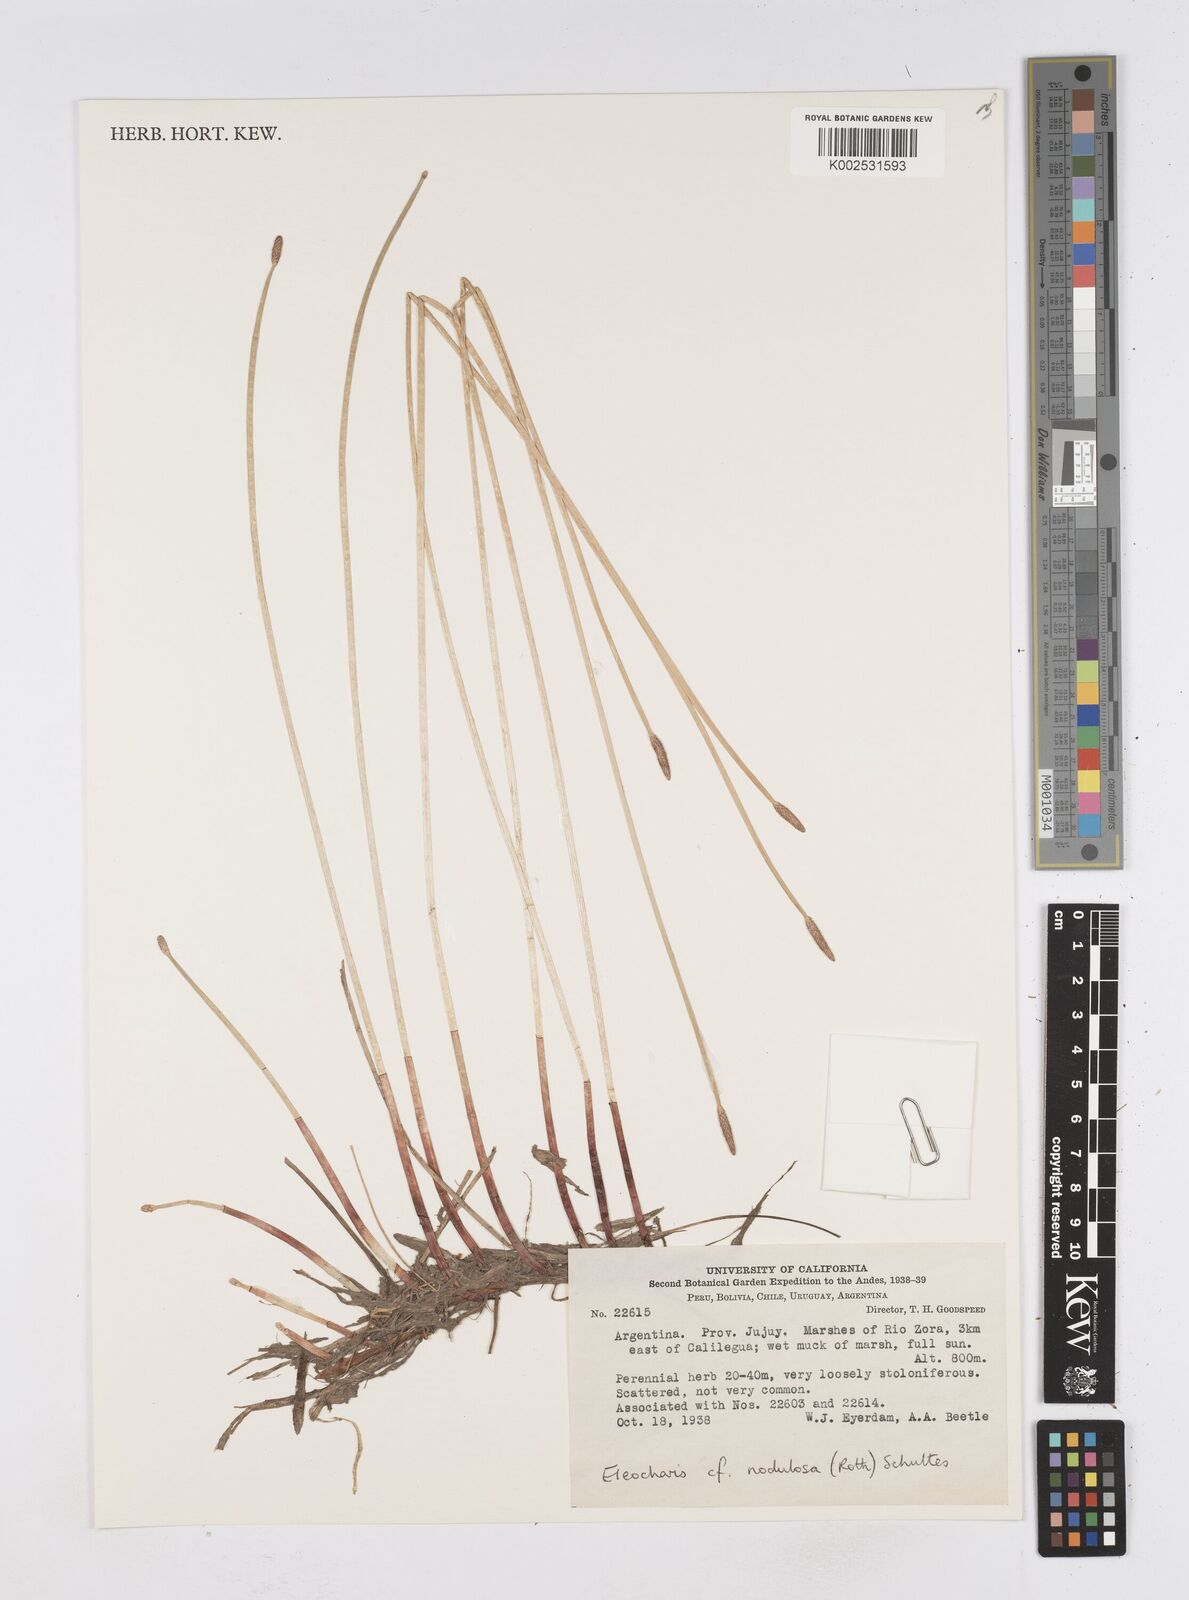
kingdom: Plantae
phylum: Tracheophyta
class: Liliopsida
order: Poales
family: Cyperaceae
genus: Eleocharis
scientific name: Eleocharis montana
